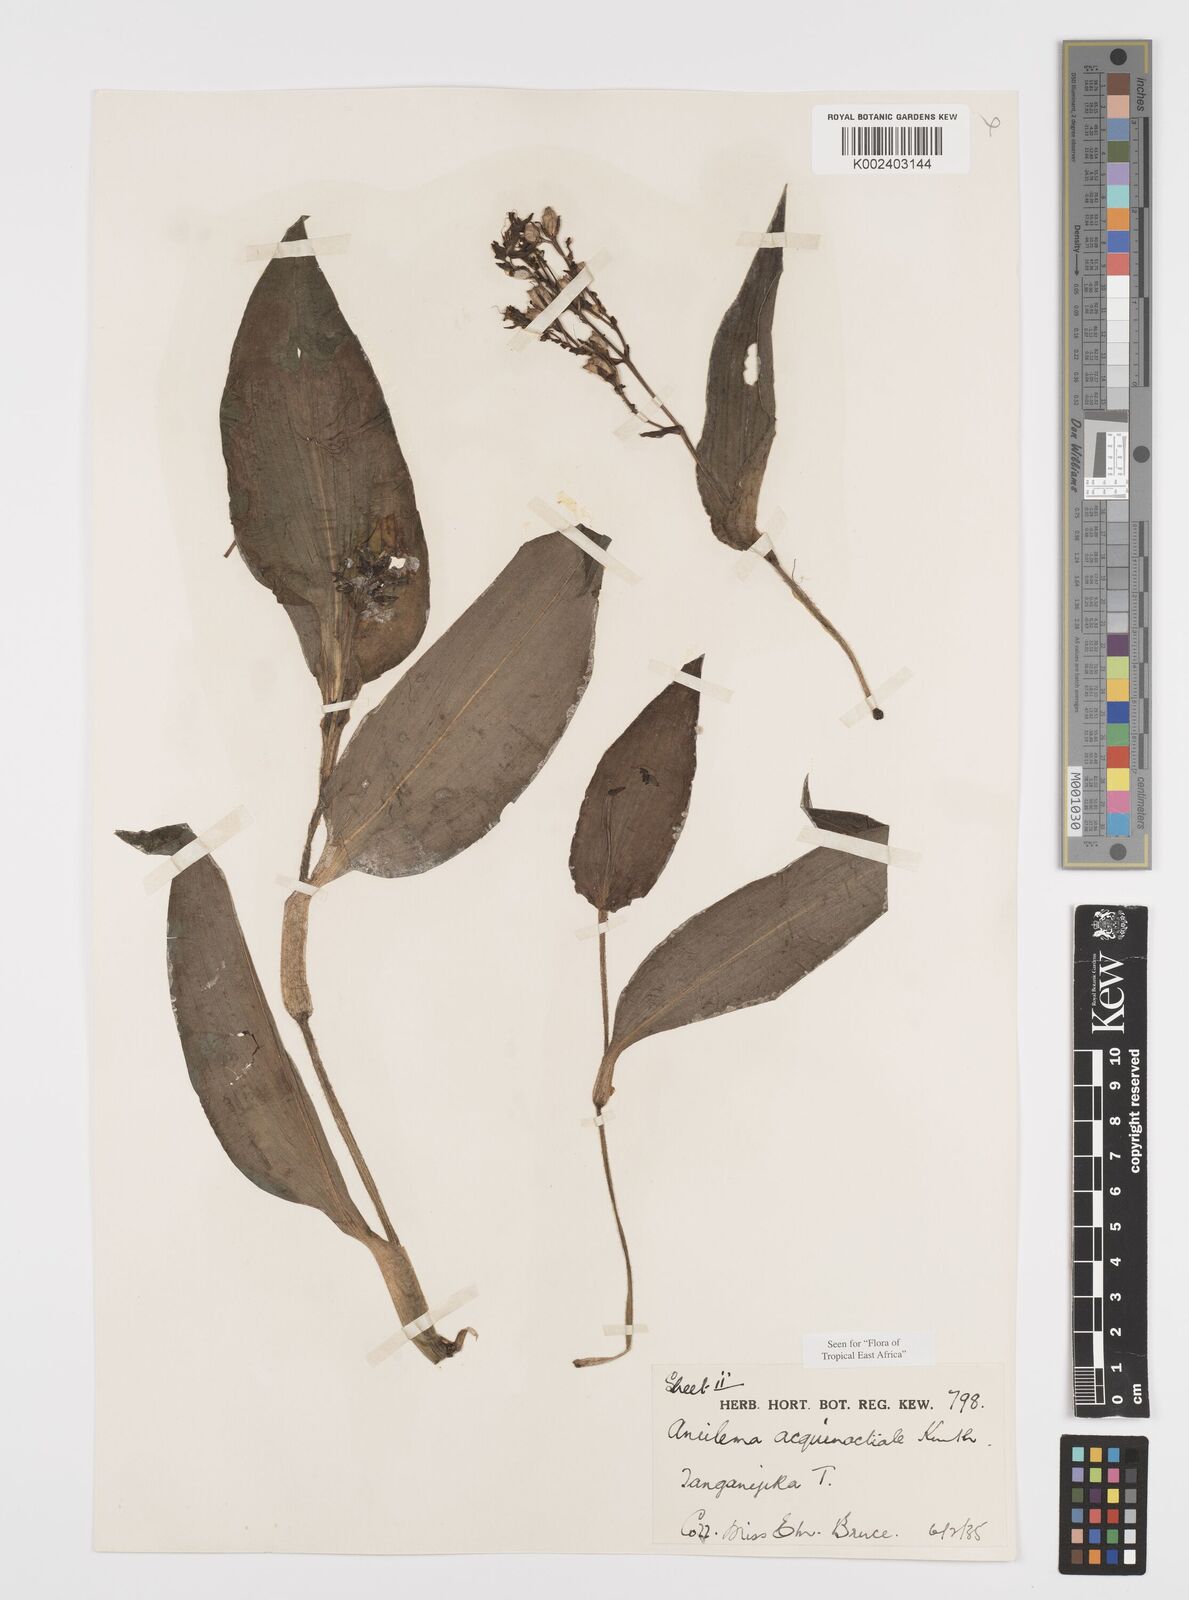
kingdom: Plantae
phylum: Tracheophyta
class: Liliopsida
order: Commelinales
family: Commelinaceae
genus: Aneilema
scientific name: Aneilema aequinoctiale
